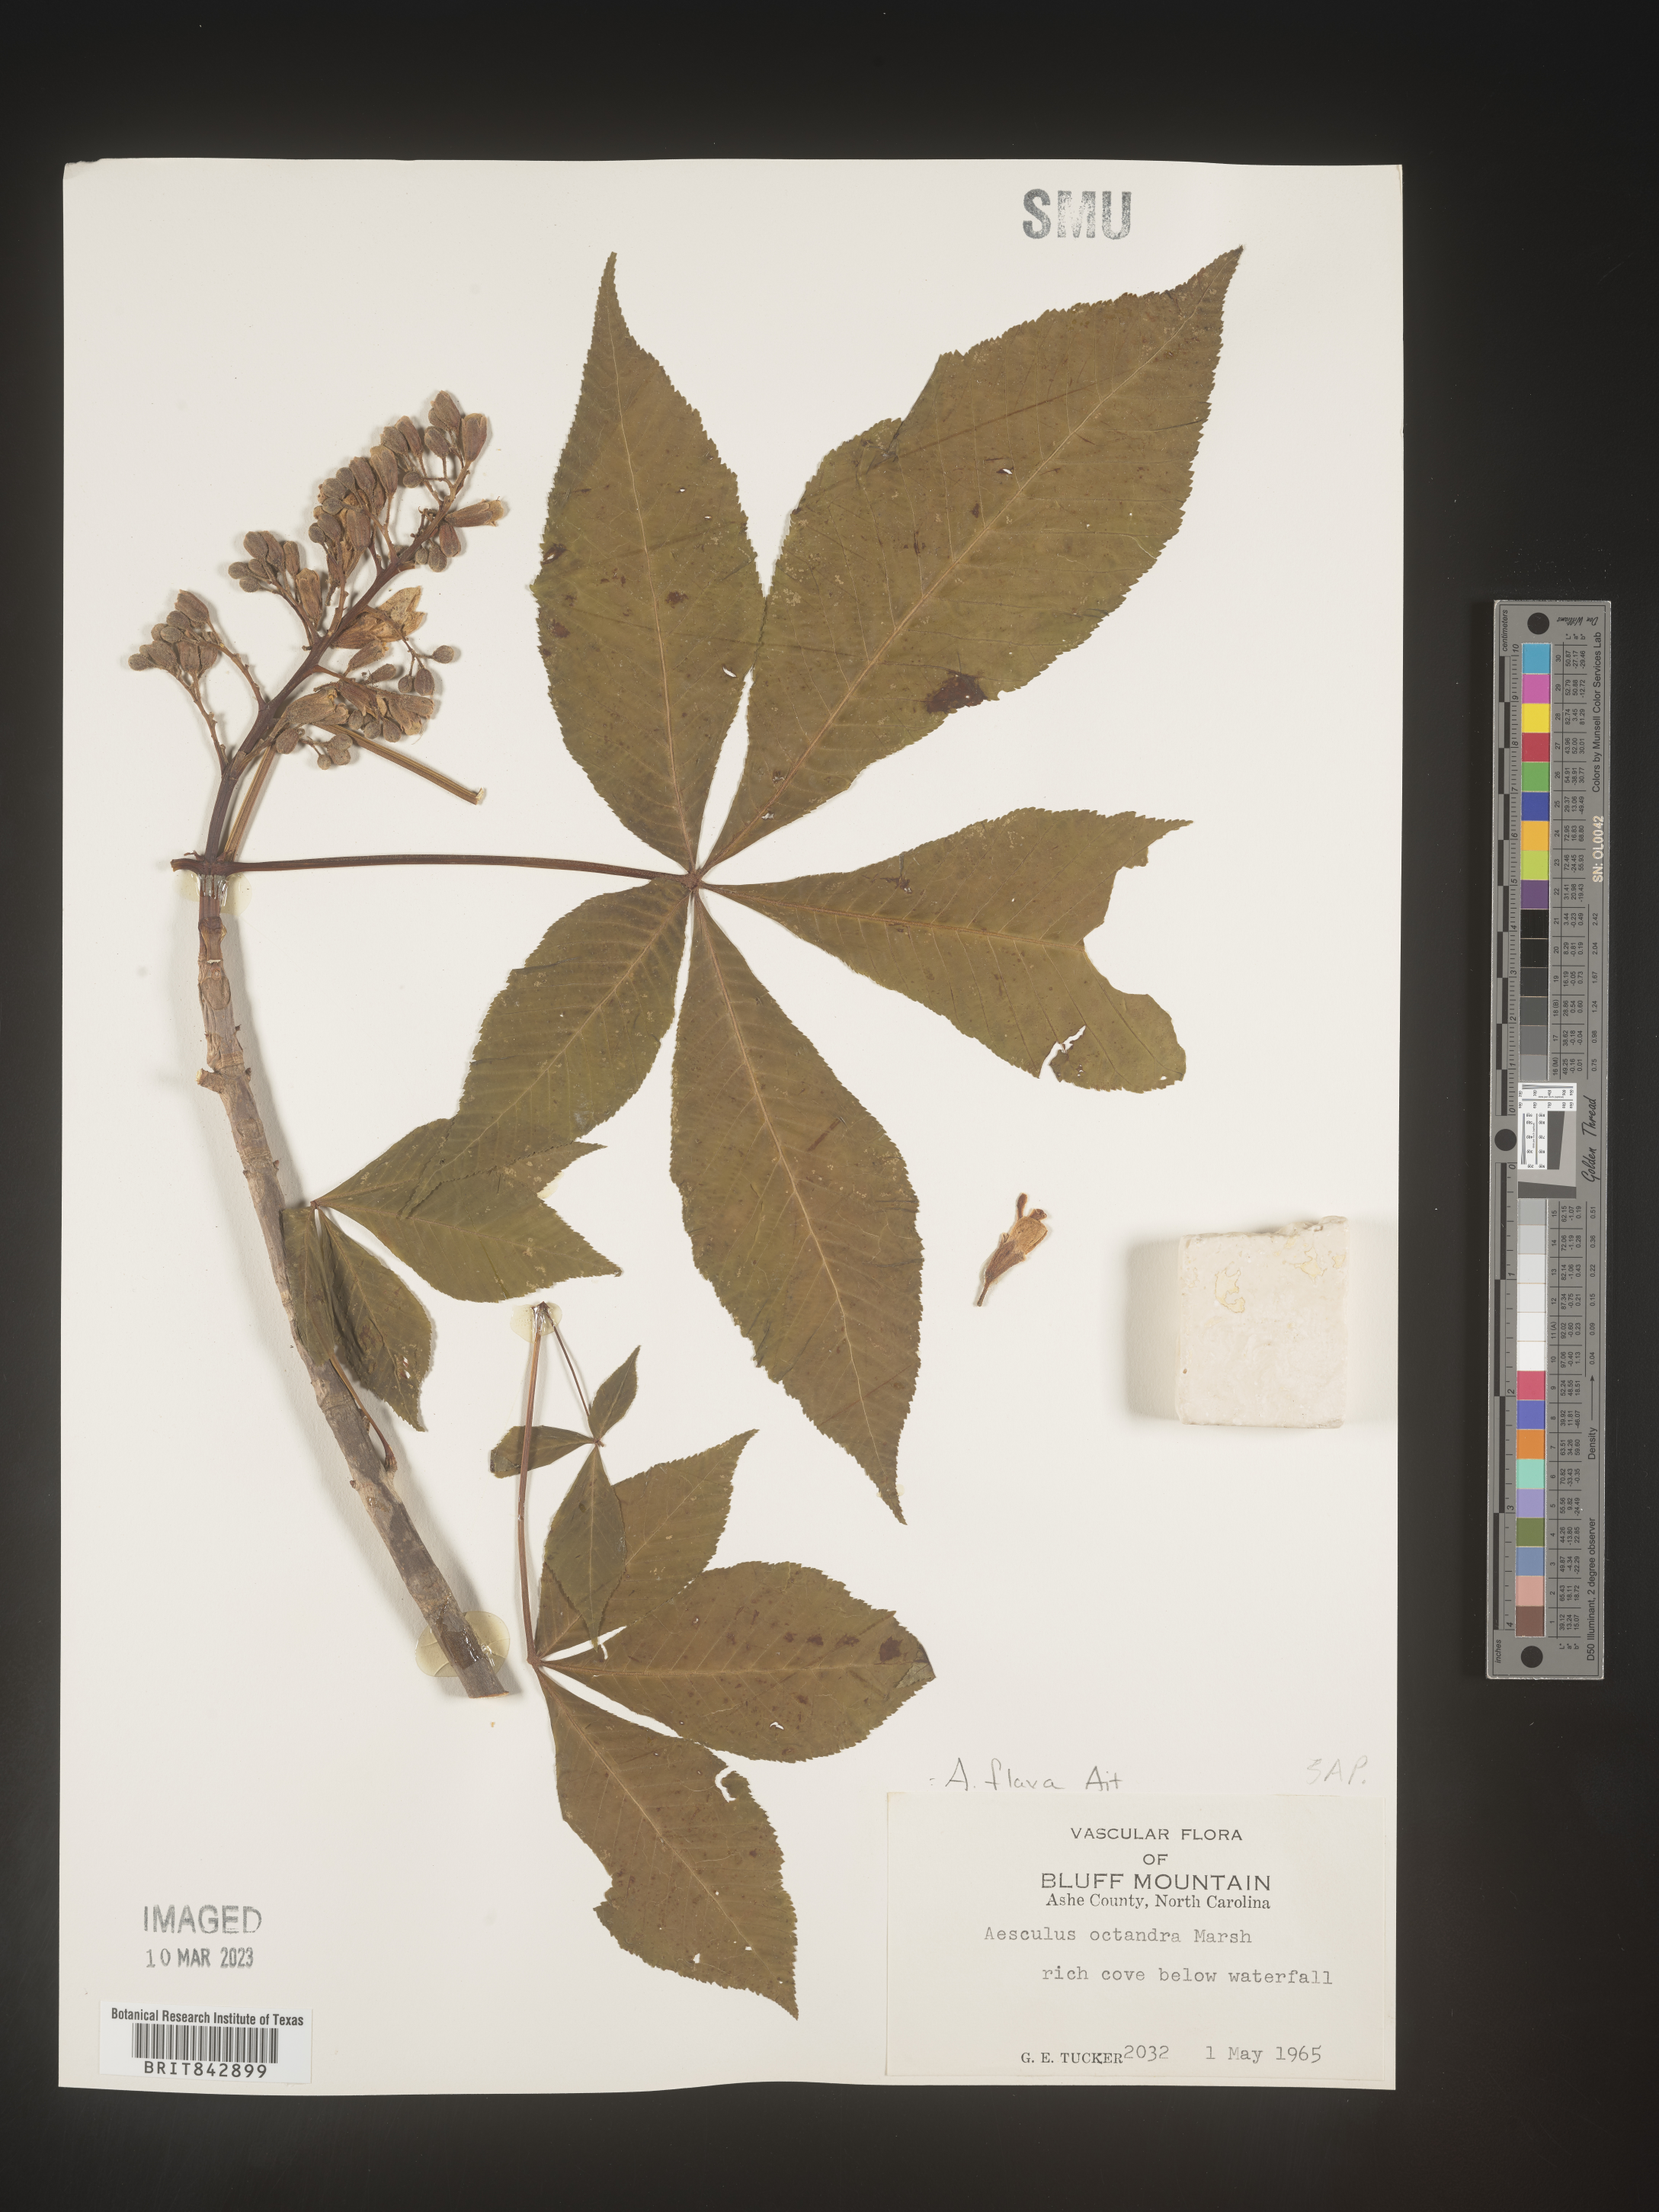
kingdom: Plantae
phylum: Tracheophyta
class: Magnoliopsida
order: Sapindales
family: Sapindaceae
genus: Aesculus
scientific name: Aesculus flava
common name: Yellow buckeye
